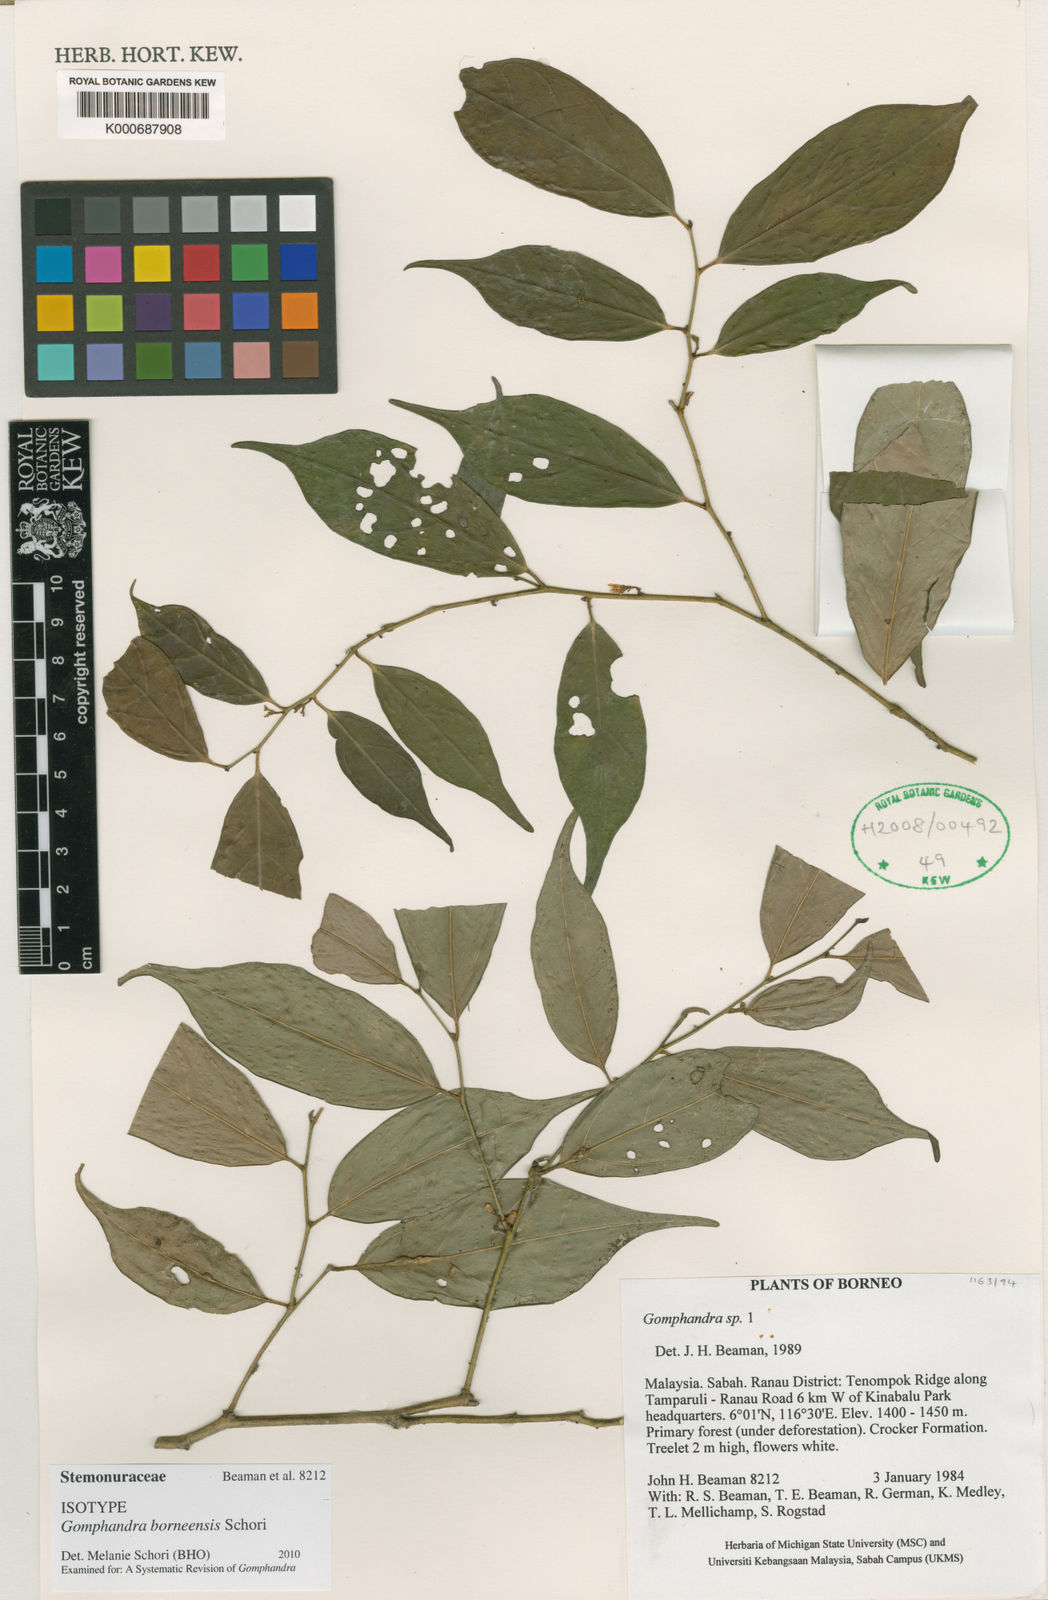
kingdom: Plantae
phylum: Tracheophyta
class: Magnoliopsida
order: Cardiopteridales
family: Stemonuraceae
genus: Gomphandra
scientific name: Gomphandra
